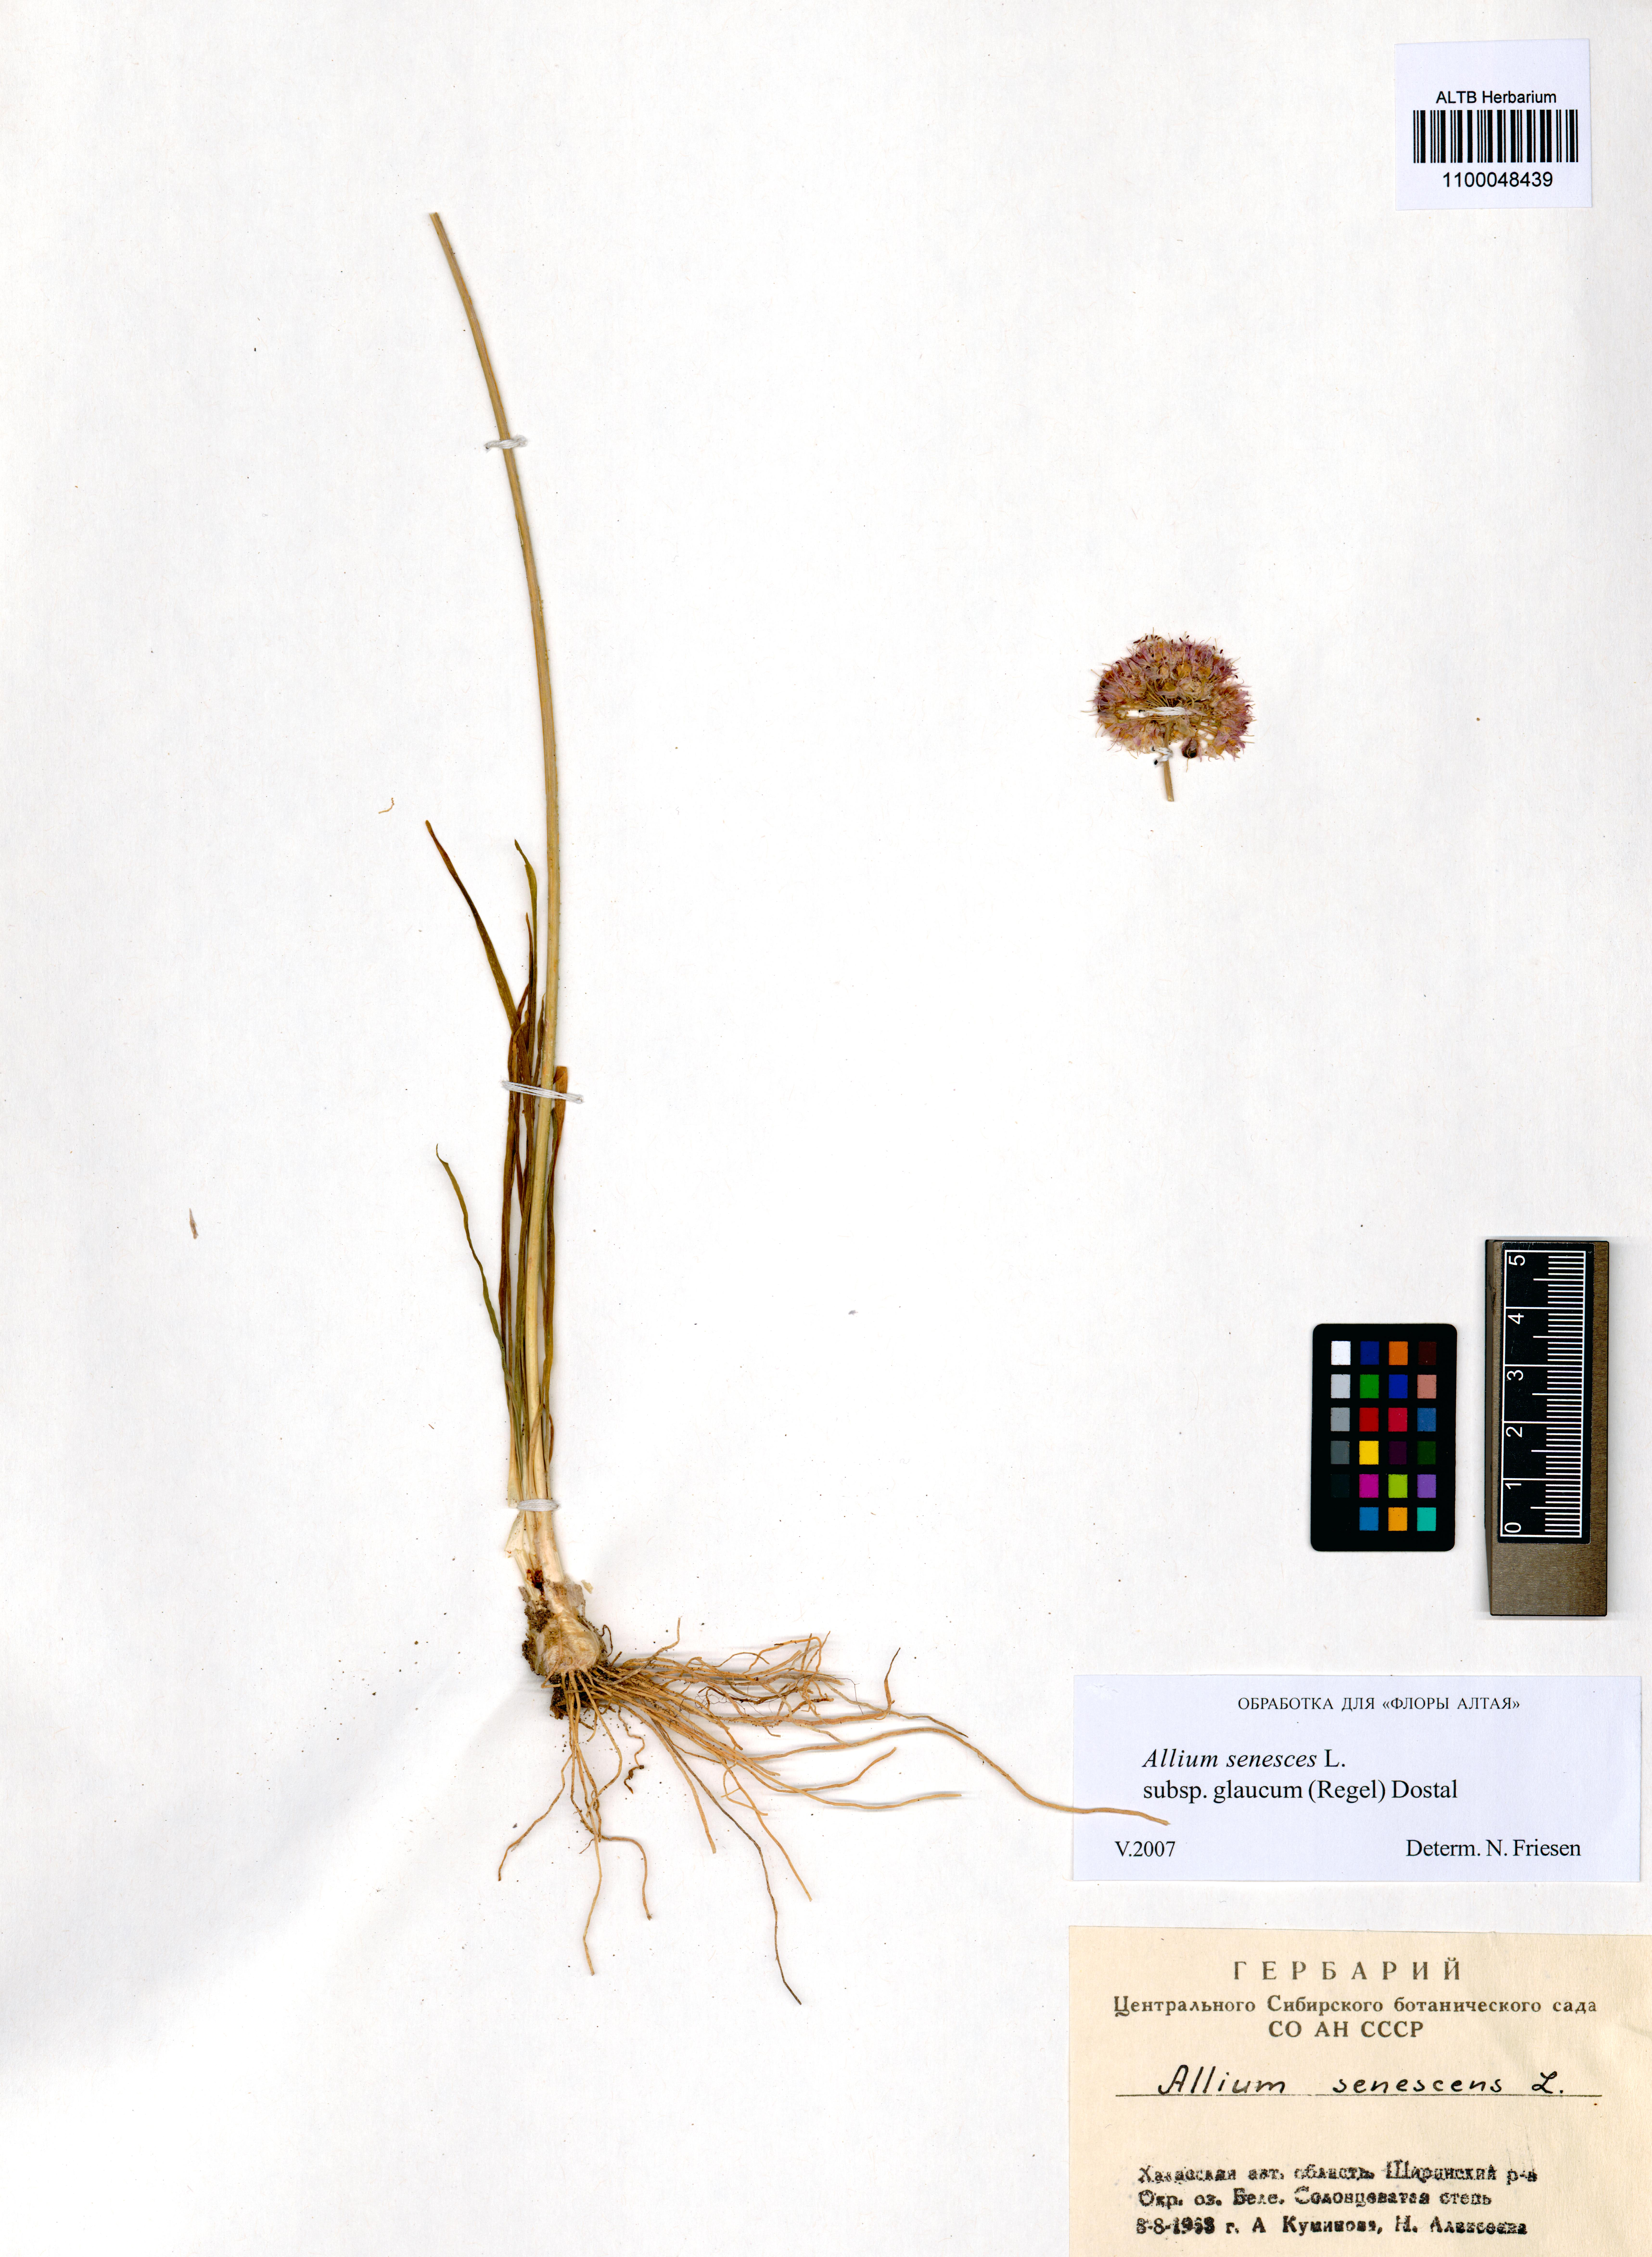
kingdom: Plantae
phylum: Tracheophyta
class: Liliopsida
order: Asparagales
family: Amaryllidaceae
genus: Allium
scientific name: Allium senescens
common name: German garlic
